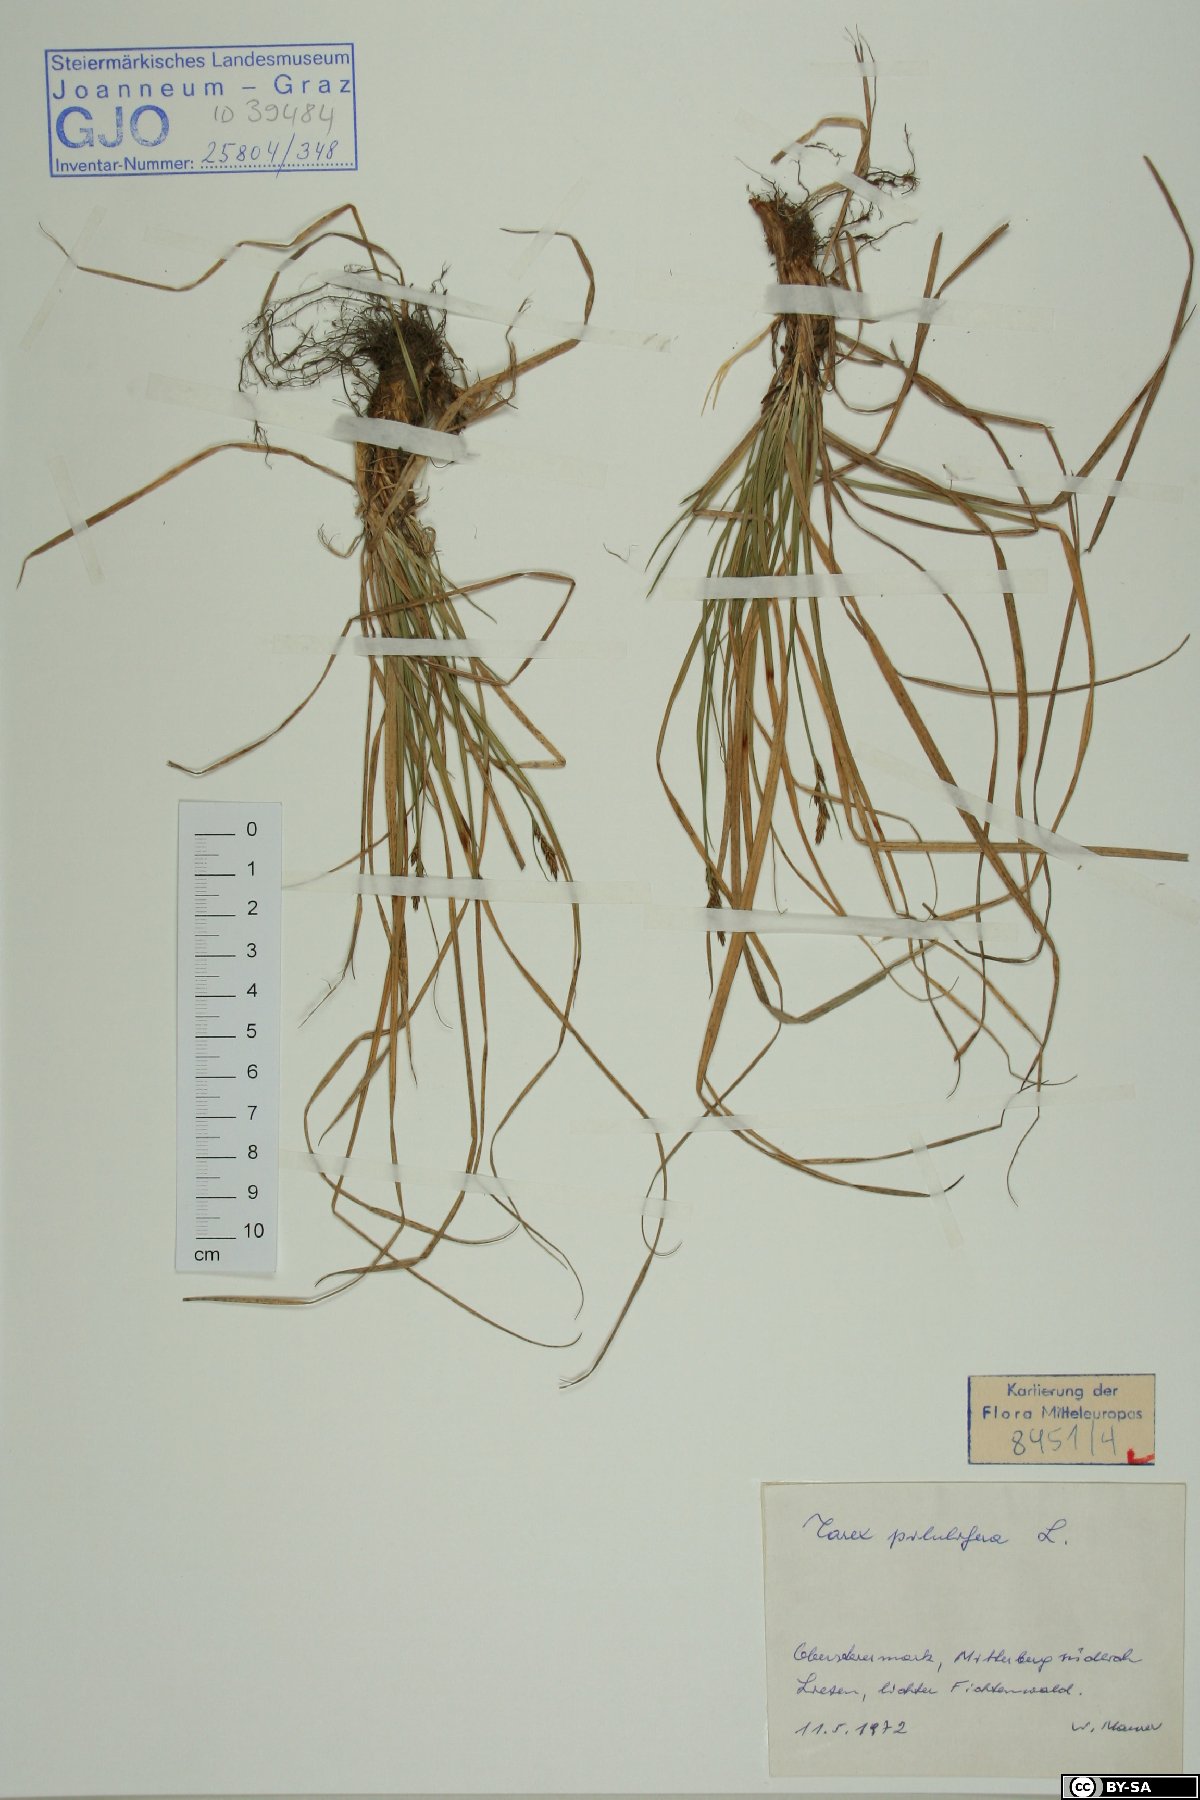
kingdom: Plantae
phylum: Tracheophyta
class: Liliopsida
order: Poales
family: Cyperaceae
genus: Carex
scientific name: Carex pilulifera
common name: Pill sedge
